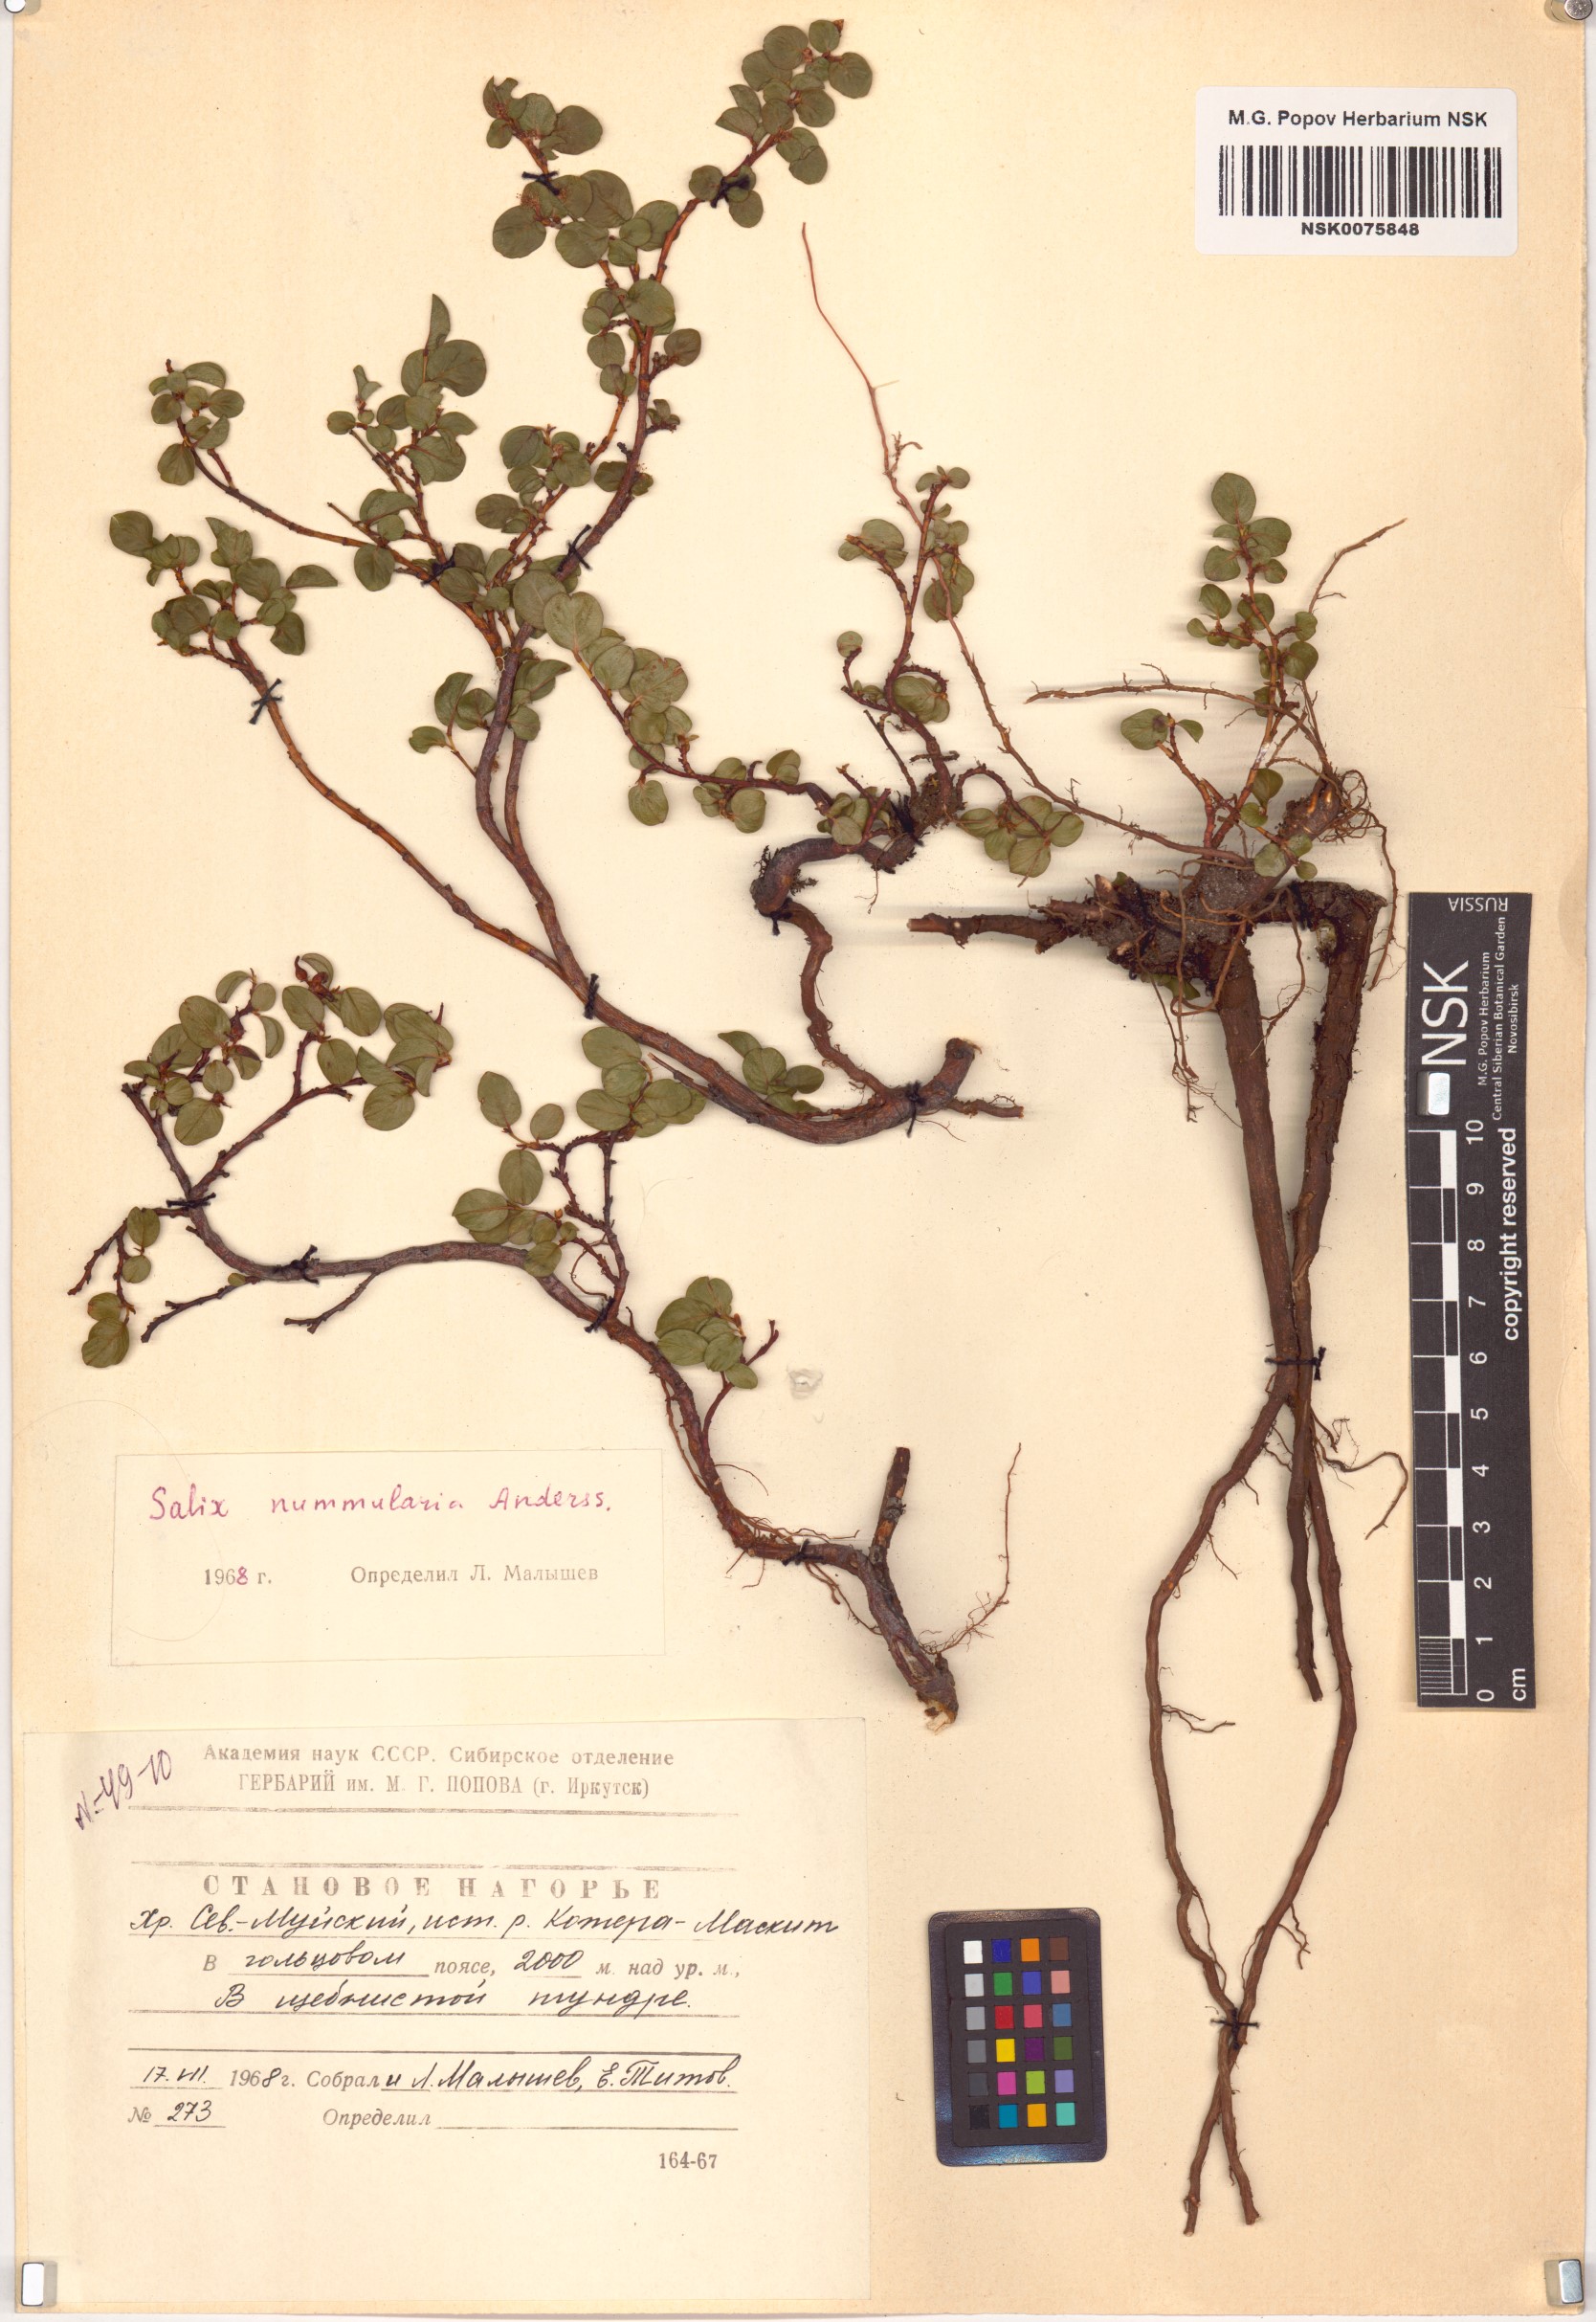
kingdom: Plantae
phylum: Tracheophyta
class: Magnoliopsida
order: Malpighiales
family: Salicaceae
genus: Salix
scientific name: Salix nummularia
